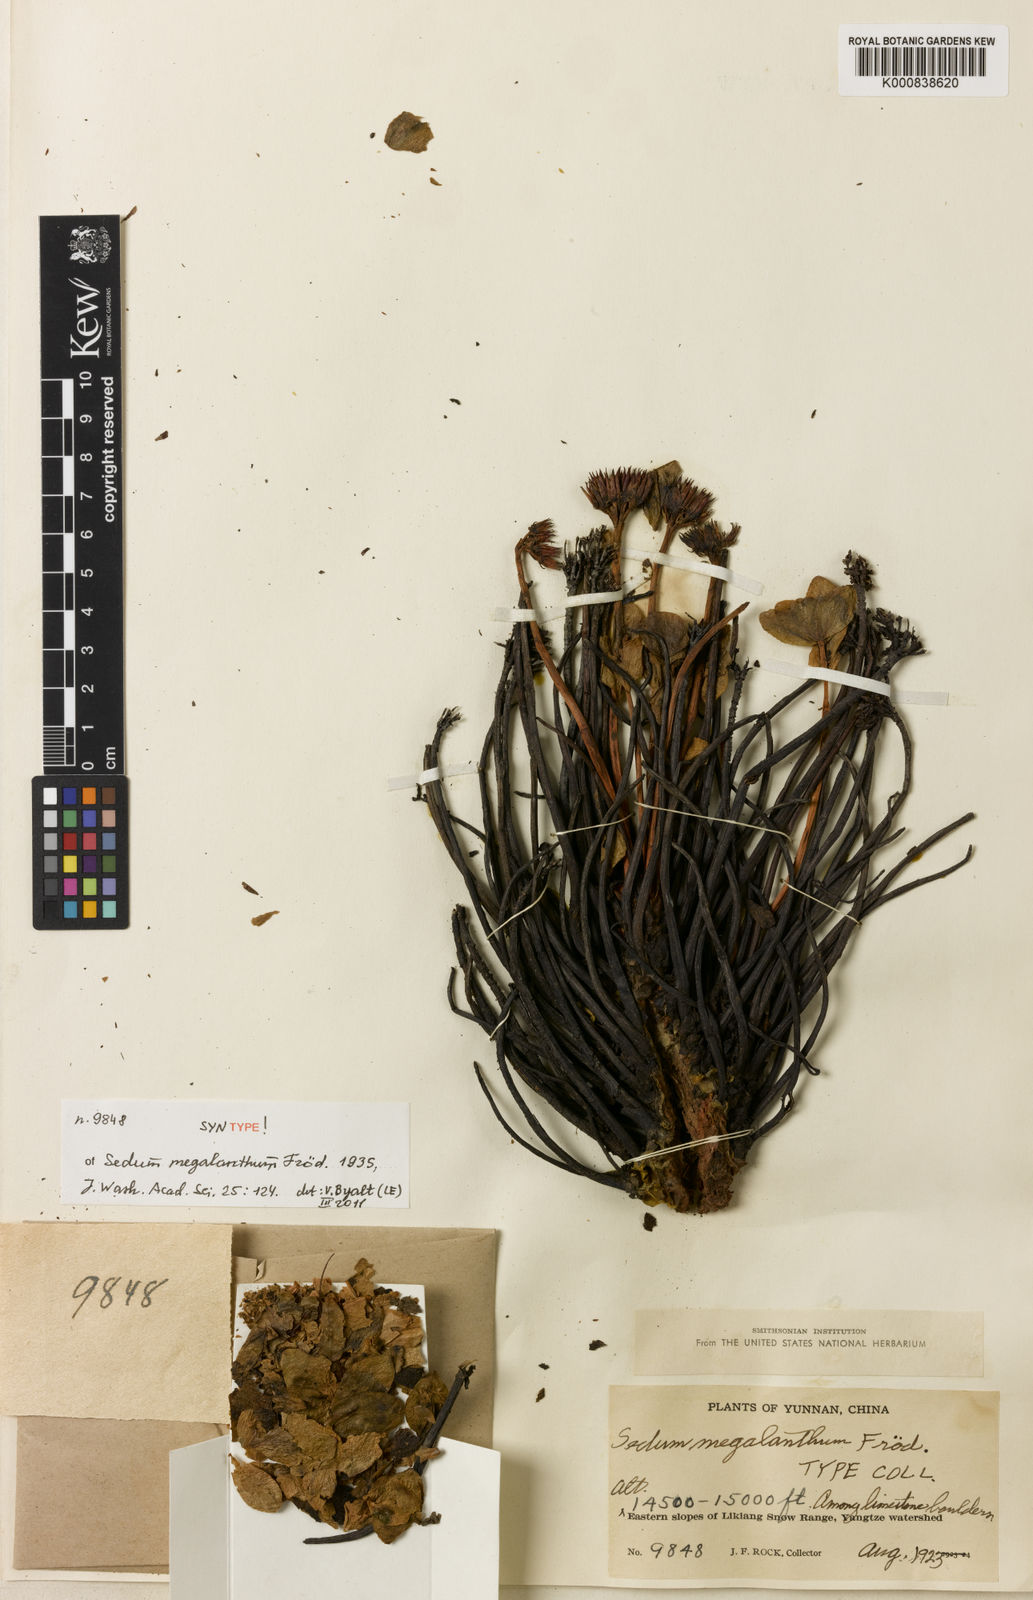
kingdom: Plantae
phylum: Tracheophyta
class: Magnoliopsida
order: Saxifragales
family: Crassulaceae
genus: Sedum
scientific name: Sedum
